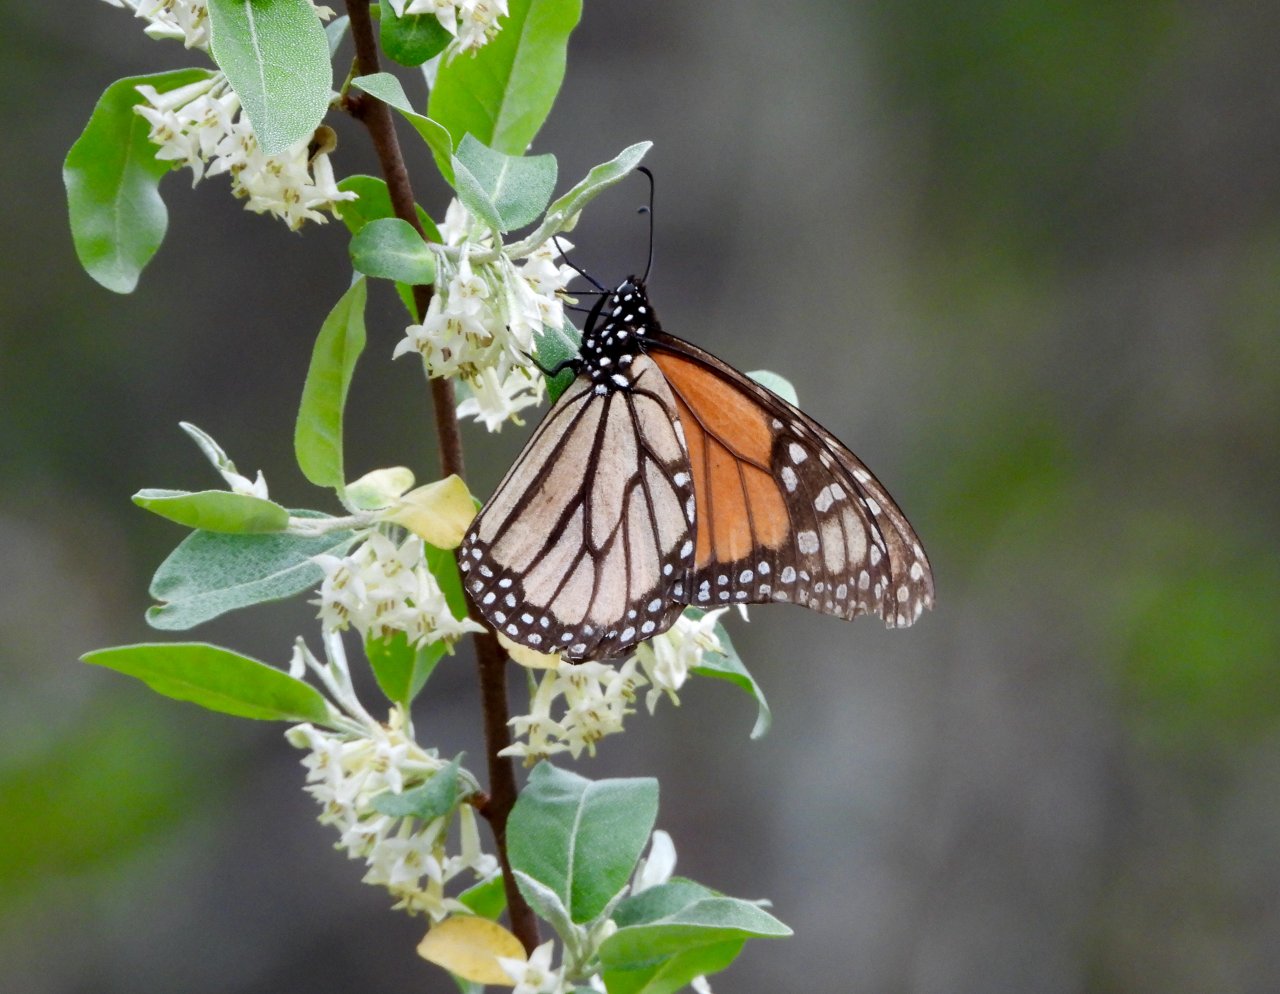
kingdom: Animalia
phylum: Arthropoda
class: Insecta
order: Lepidoptera
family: Nymphalidae
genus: Danaus
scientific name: Danaus plexippus
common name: Monarch
